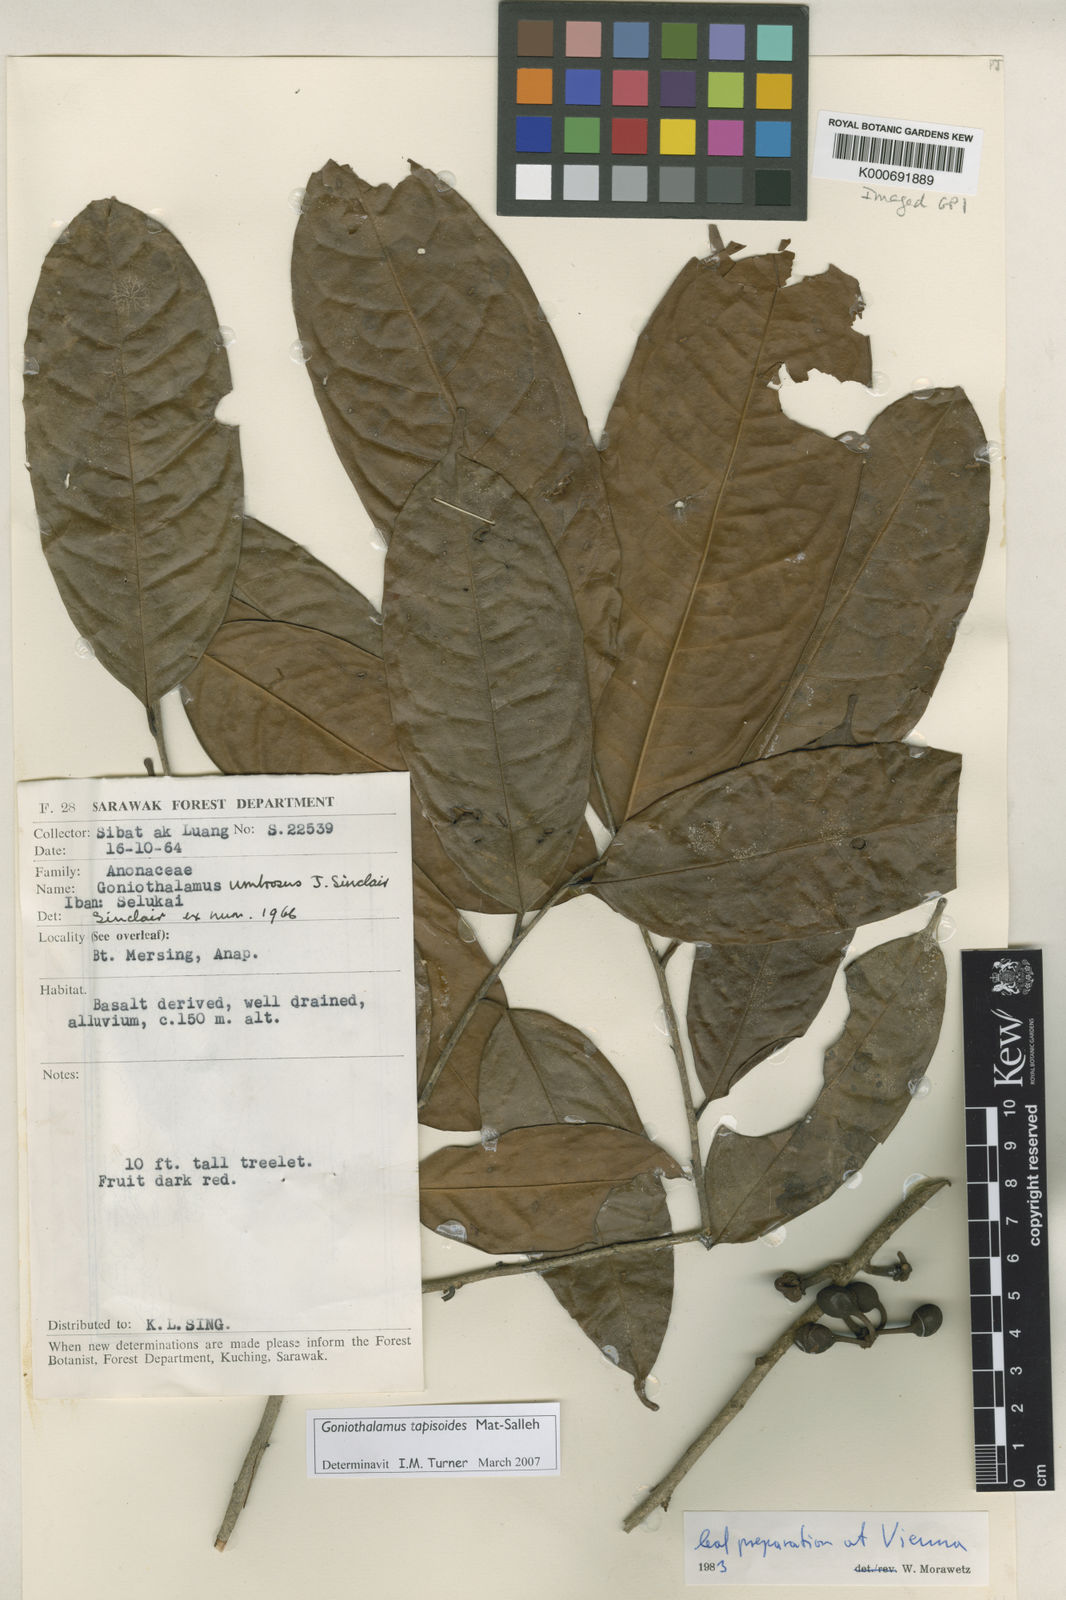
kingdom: Plantae
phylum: Tracheophyta
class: Magnoliopsida
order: Magnoliales
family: Annonaceae
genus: Goniothalamus
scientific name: Goniothalamus tapisoides
